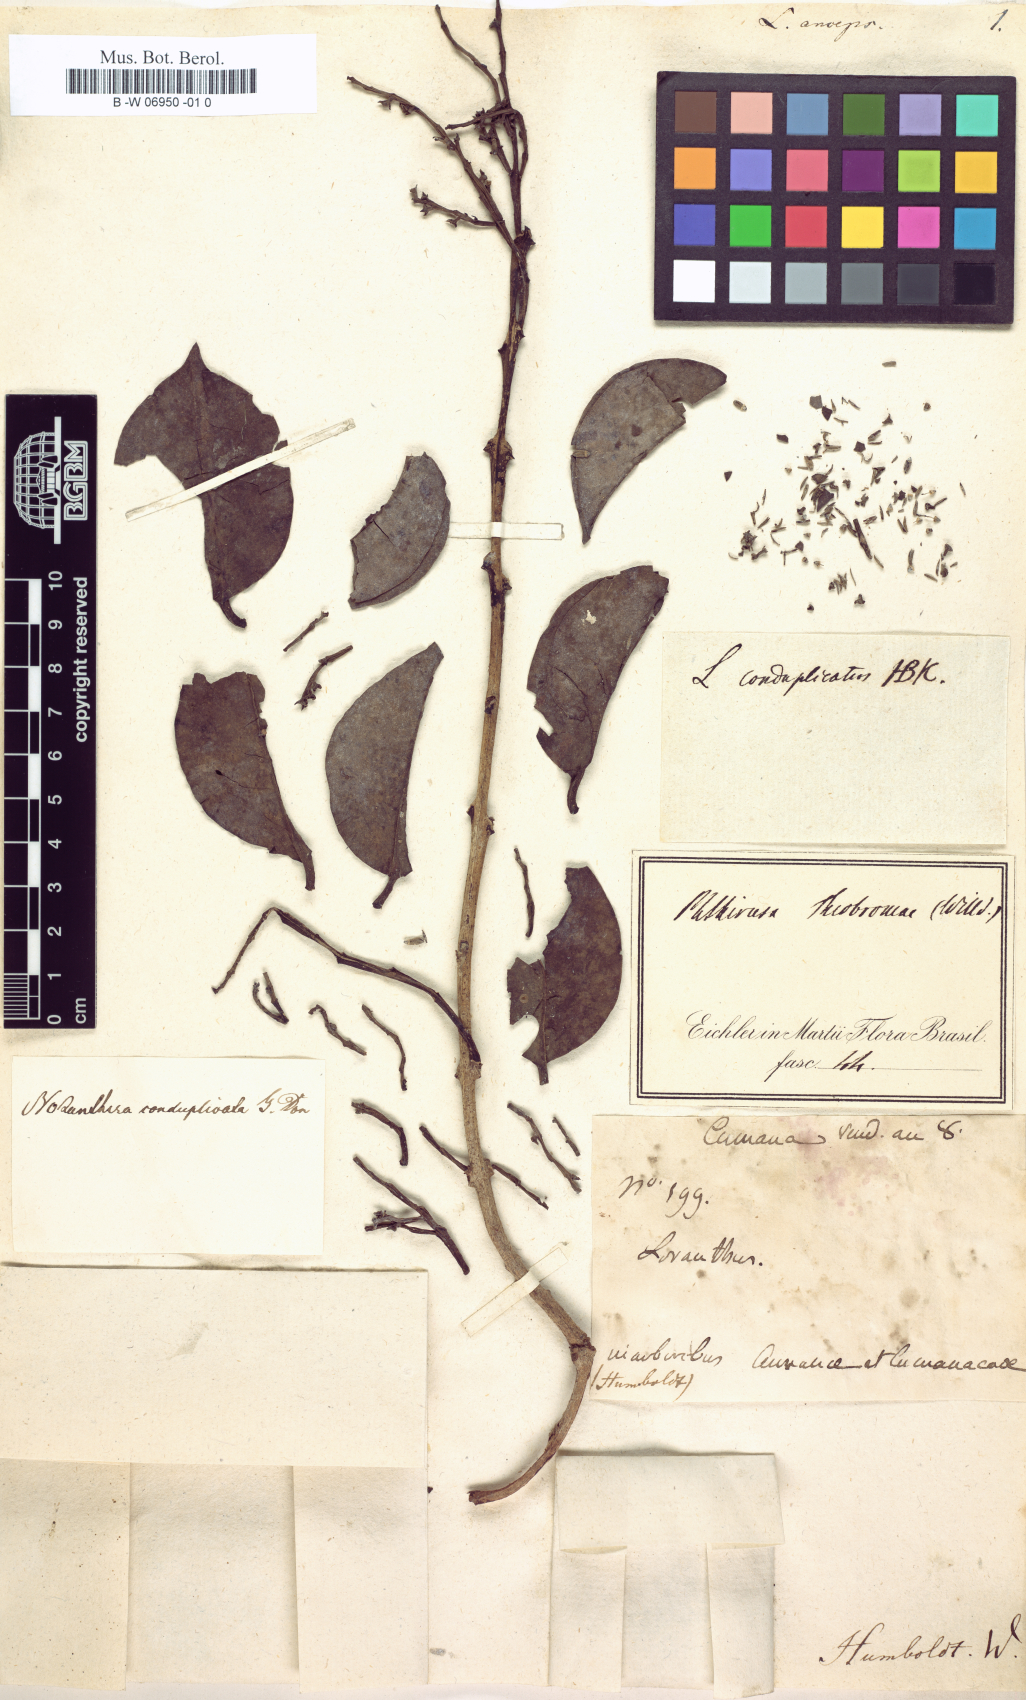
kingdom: Plantae
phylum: Tracheophyta
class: Magnoliopsida
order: Santalales
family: Loranthaceae
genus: Passovia
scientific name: Passovia pedunculata
